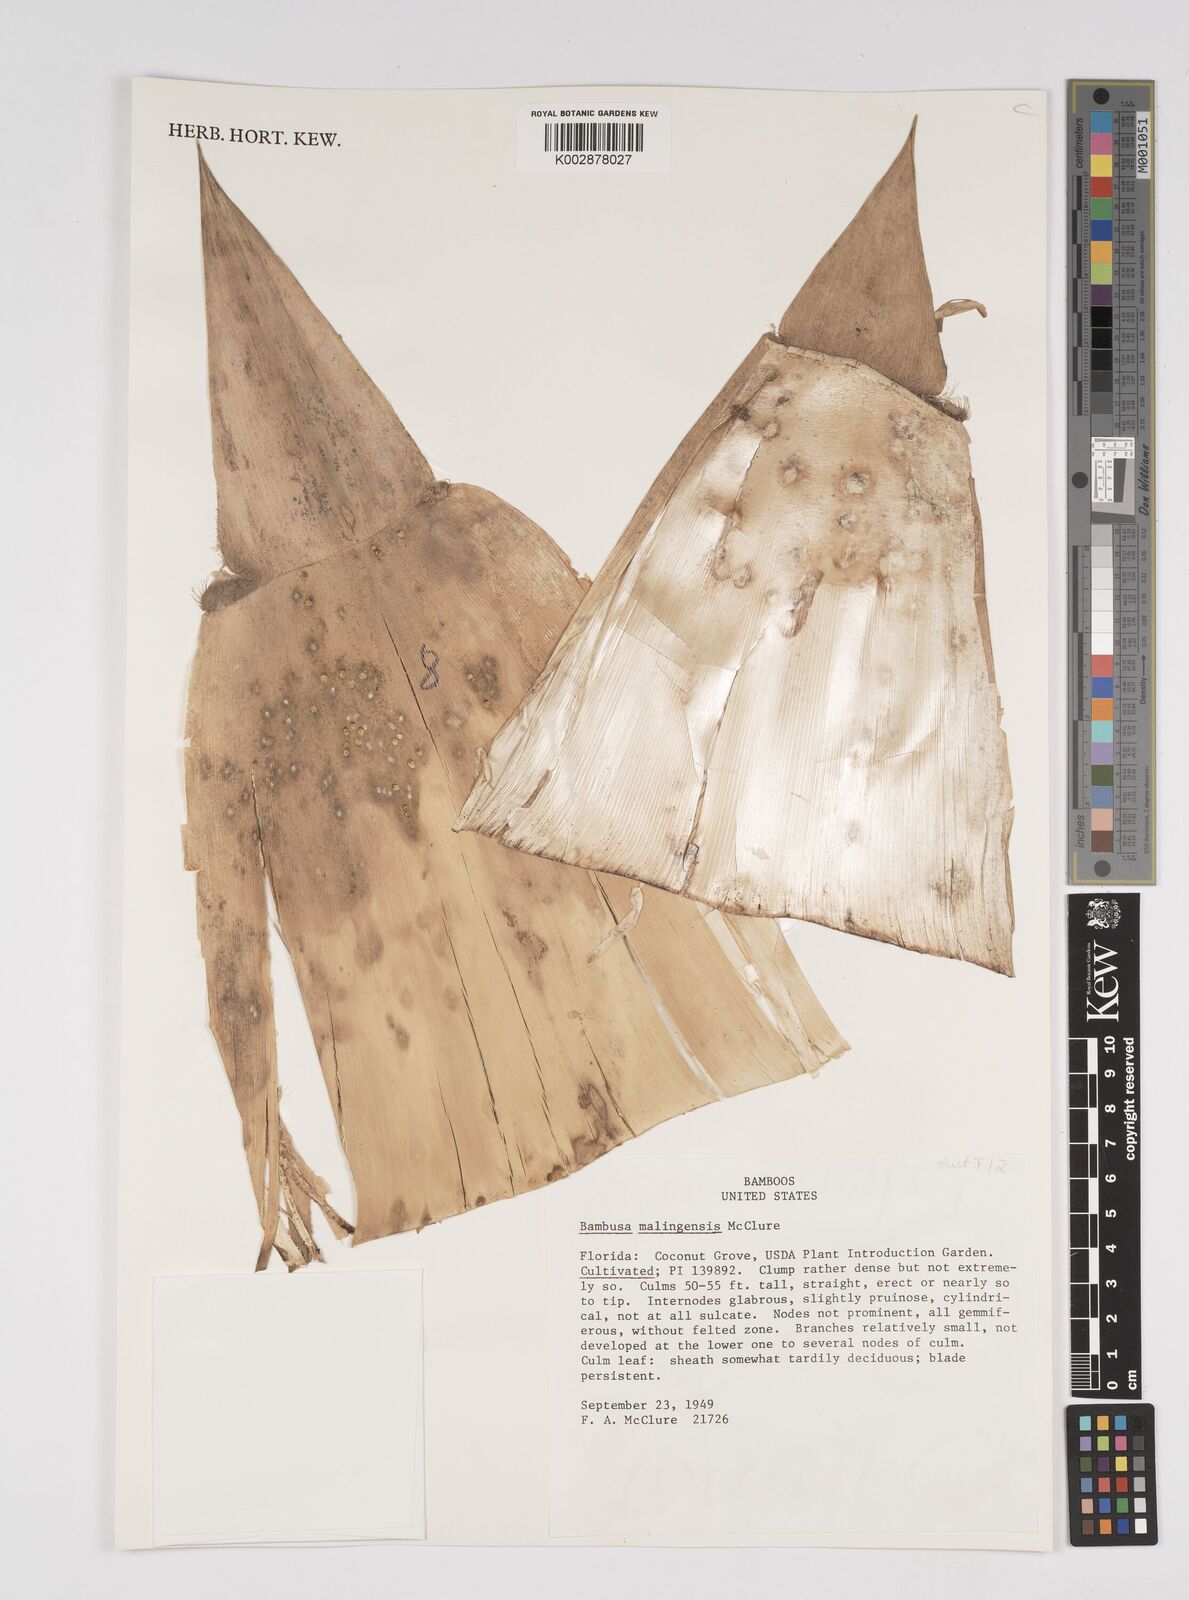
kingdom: Plantae
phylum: Tracheophyta
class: Liliopsida
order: Poales
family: Poaceae
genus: Bambusa
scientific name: Bambusa malingensis
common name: Maling bamboo
